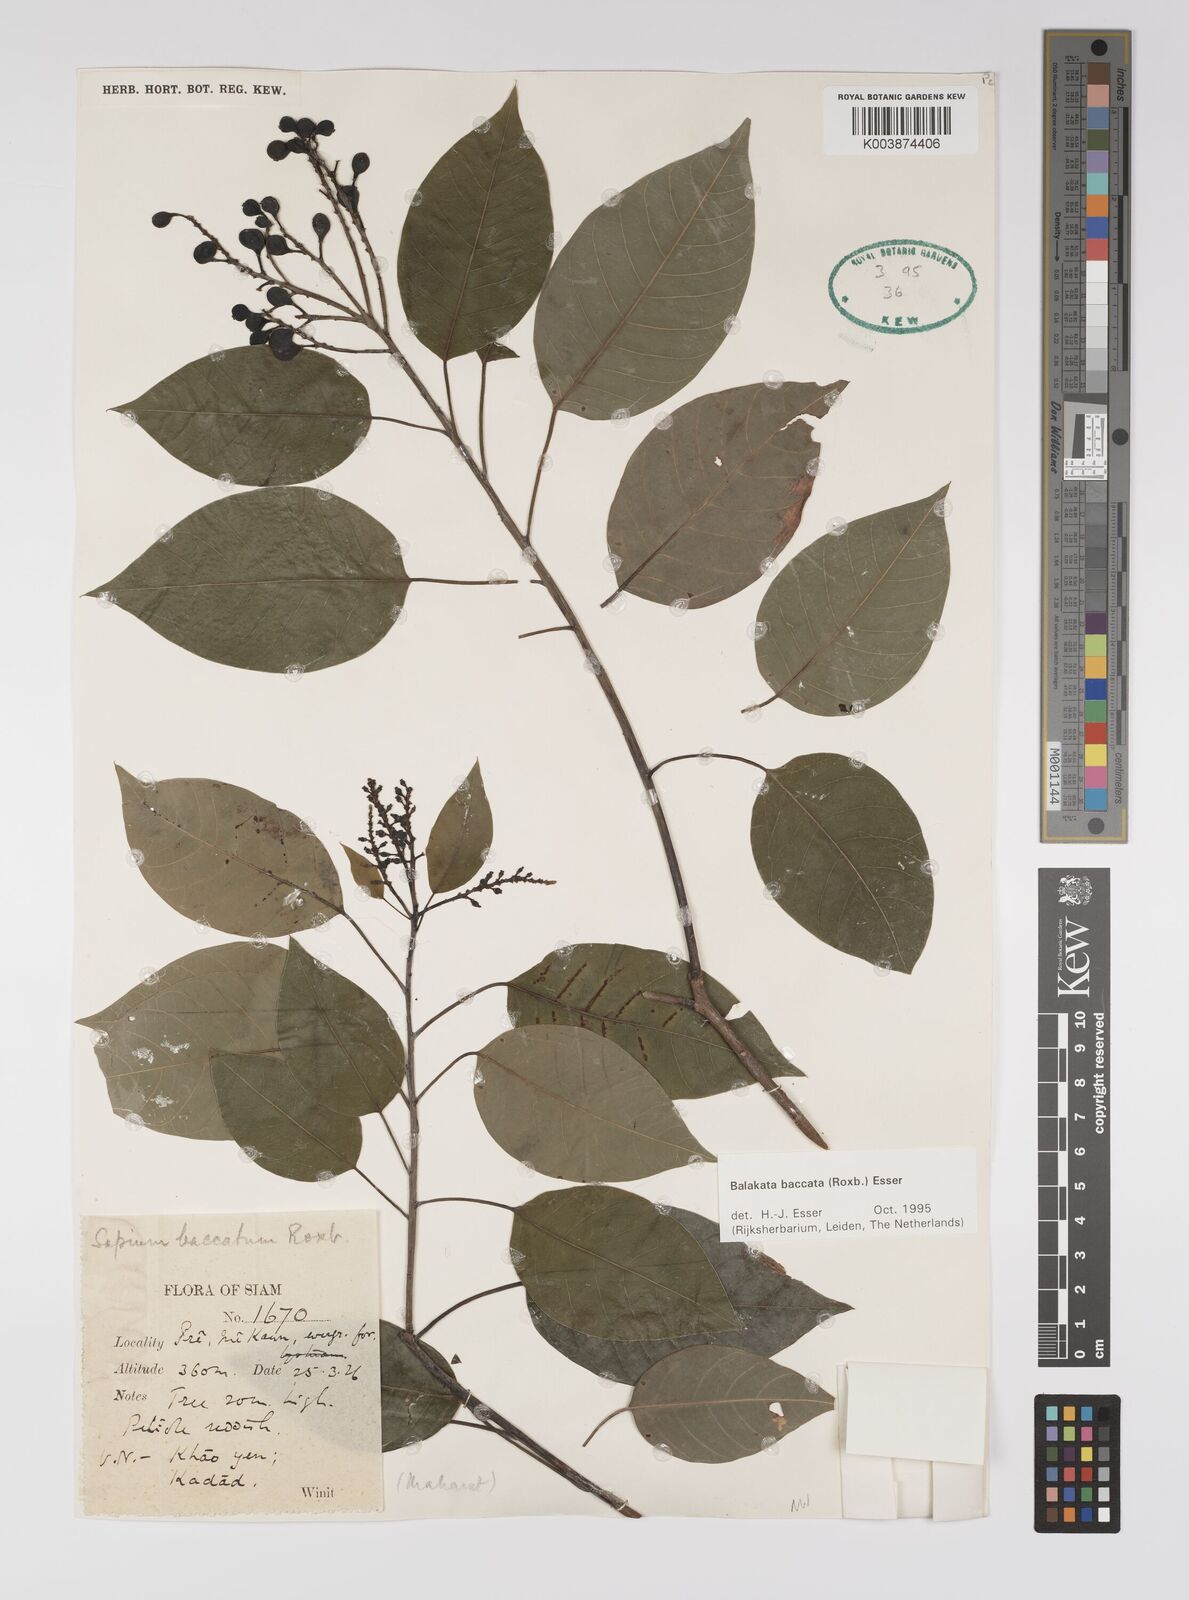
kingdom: Plantae
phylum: Tracheophyta
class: Magnoliopsida
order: Malpighiales
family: Euphorbiaceae
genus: Balakata
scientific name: Balakata baccata
